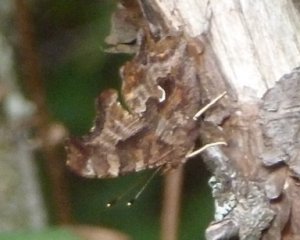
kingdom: Animalia
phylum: Arthropoda
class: Insecta
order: Lepidoptera
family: Nymphalidae
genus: Polygonia
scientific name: Polygonia comma
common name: Eastern Comma
